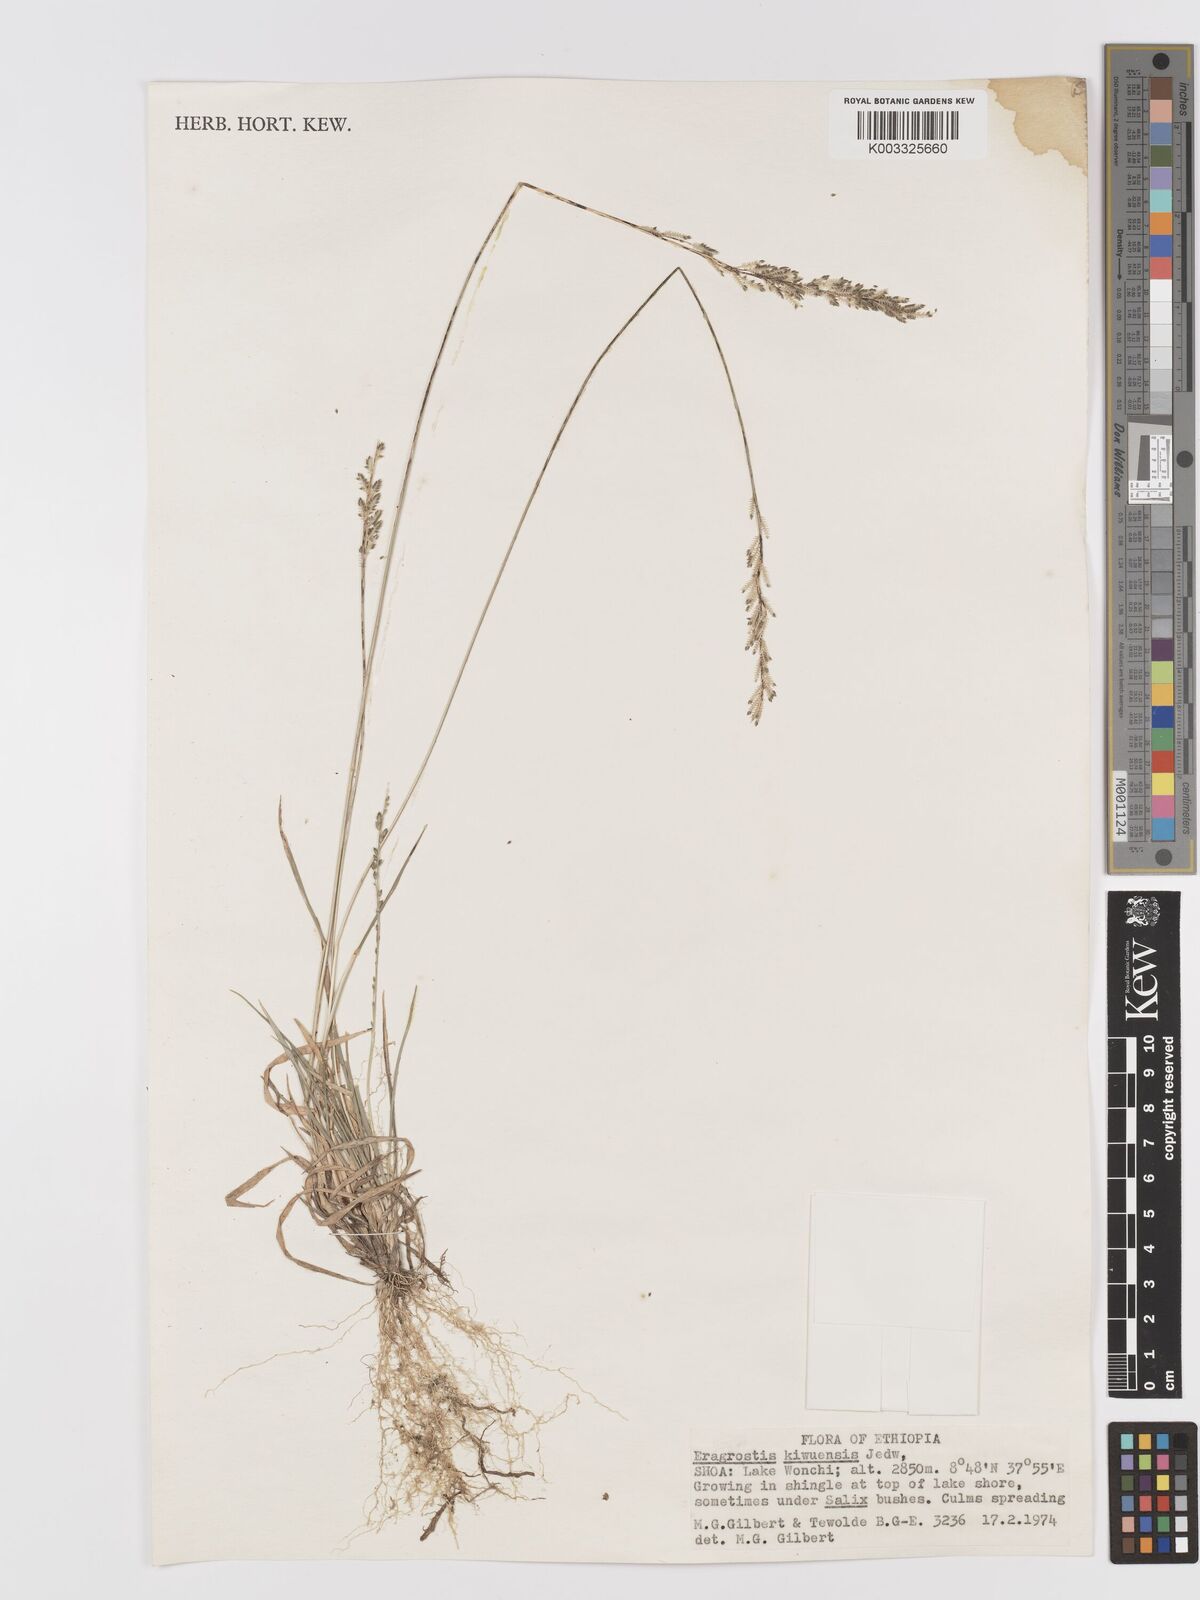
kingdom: Plantae
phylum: Tracheophyta
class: Liliopsida
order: Poales
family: Poaceae
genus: Eragrostis
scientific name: Eragrostis schweinfurthii
